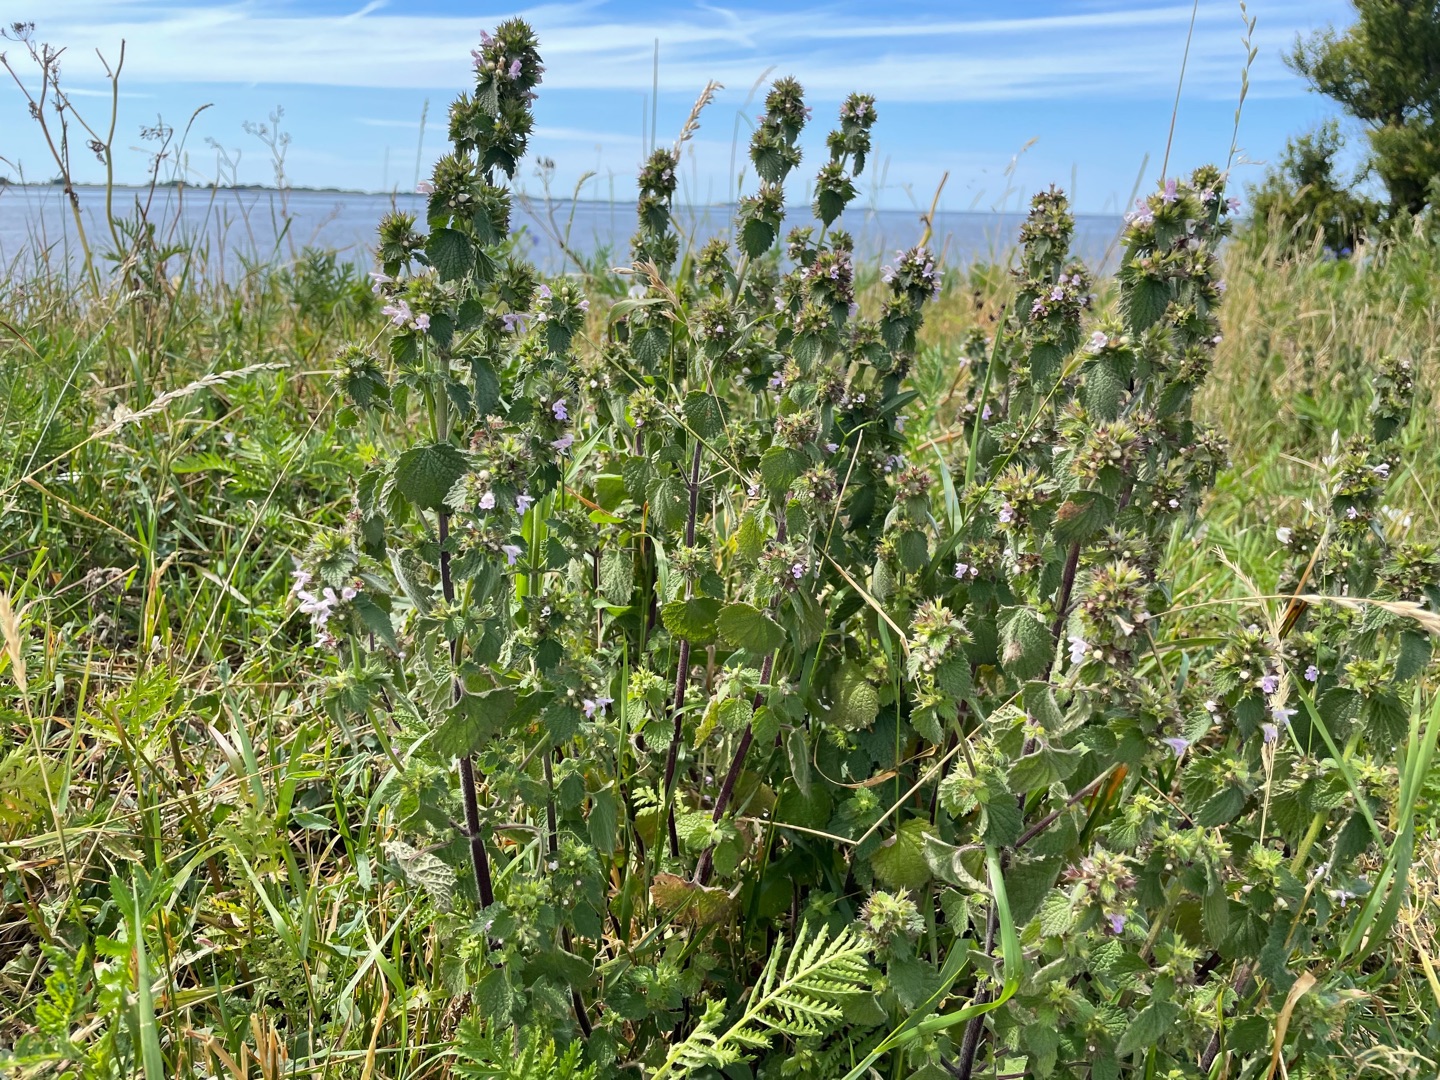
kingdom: Plantae
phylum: Tracheophyta
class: Magnoliopsida
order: Lamiales
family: Lamiaceae
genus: Ballota
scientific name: Ballota nigra
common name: Rød tandbæger
